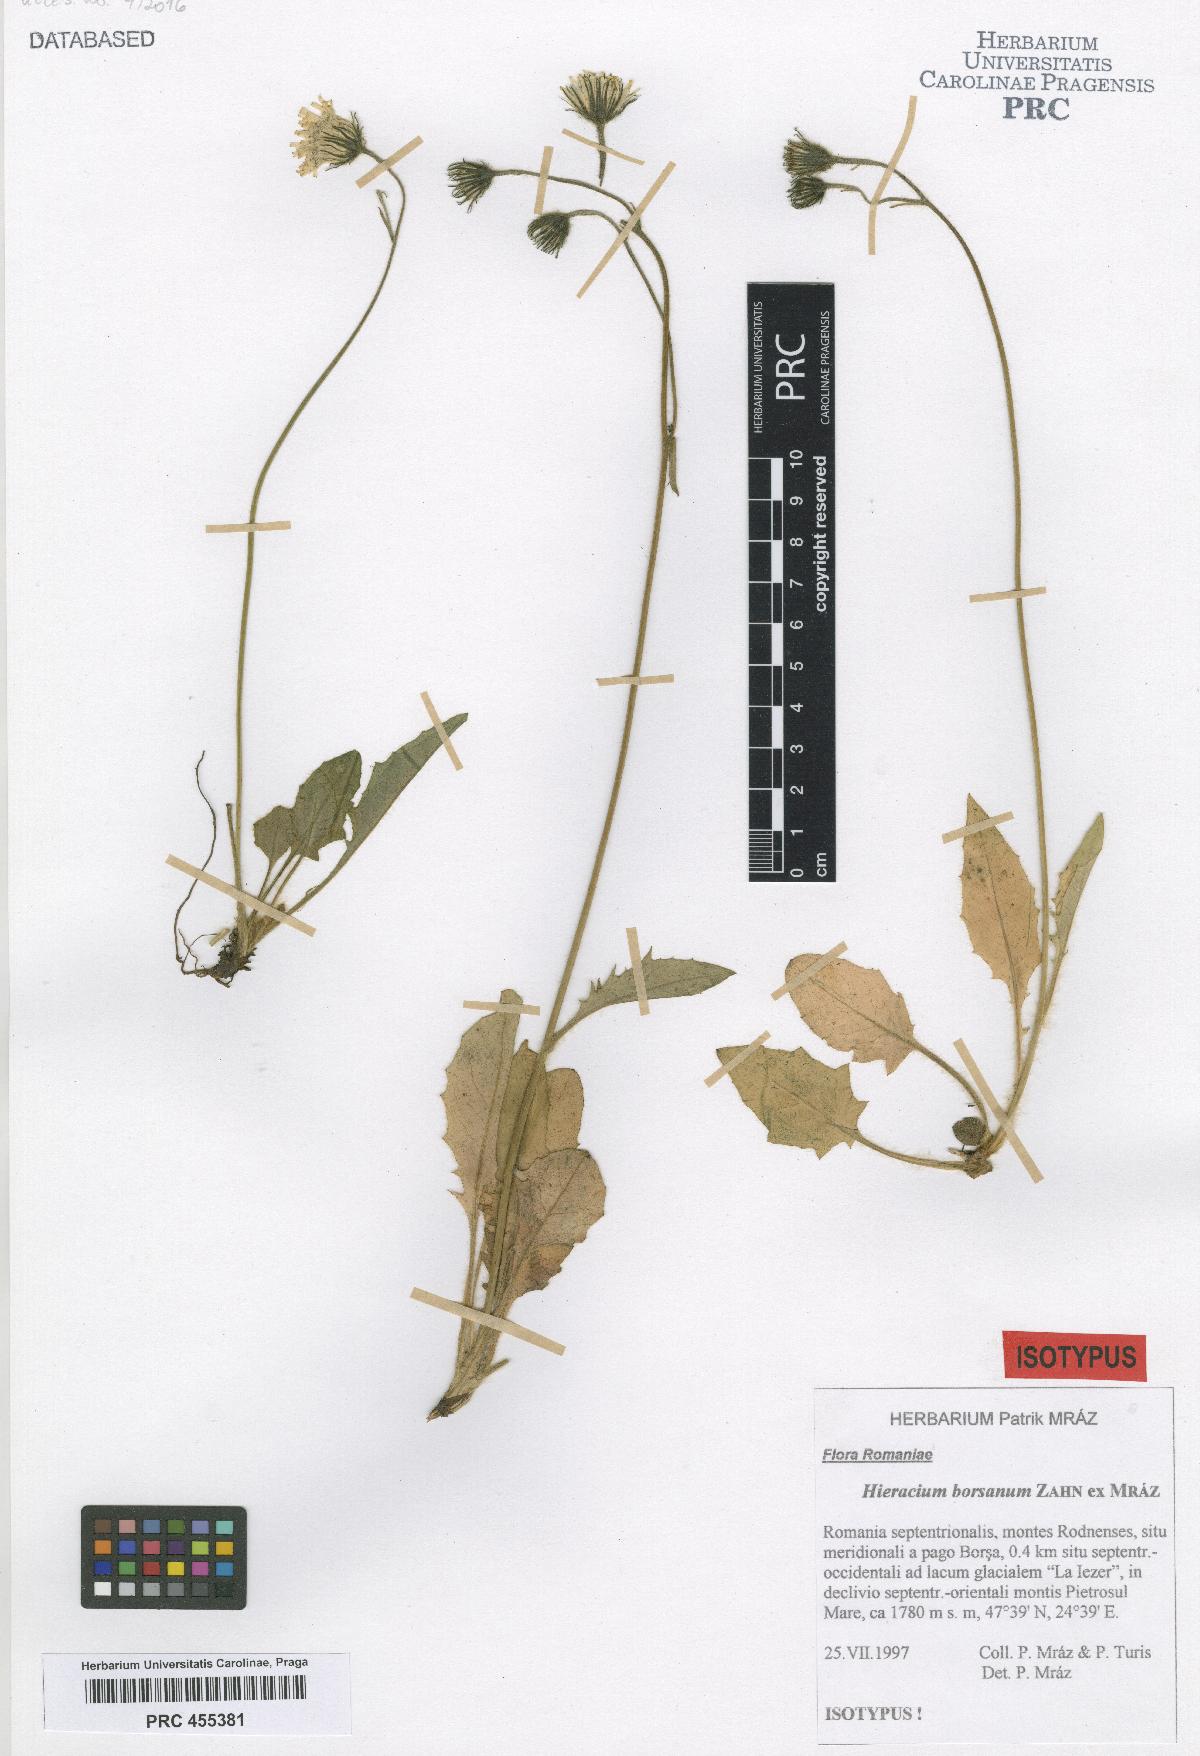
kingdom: Plantae
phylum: Tracheophyta
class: Magnoliopsida
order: Asterales
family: Asteraceae
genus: Hieracium
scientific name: Hieracium borsanum
